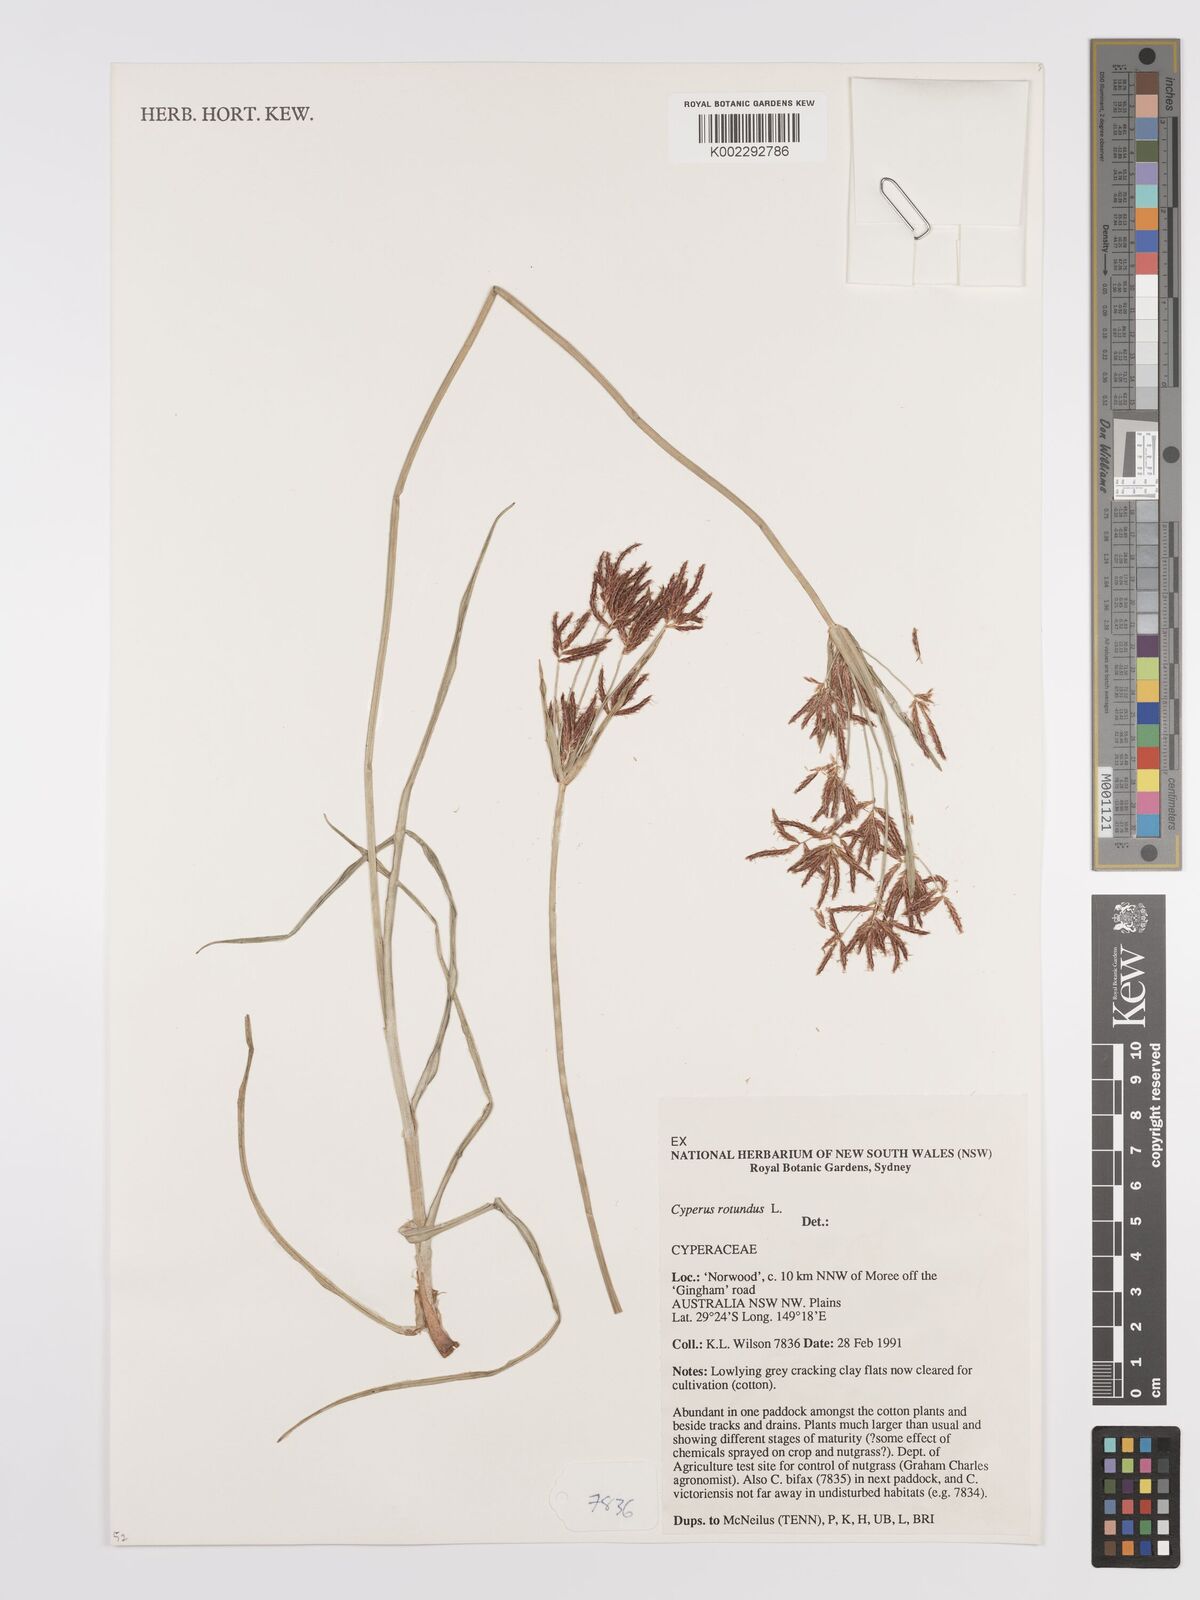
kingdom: Plantae
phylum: Tracheophyta
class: Liliopsida
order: Poales
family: Cyperaceae
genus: Cyperus
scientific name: Cyperus rotundus
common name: Nutgrass
